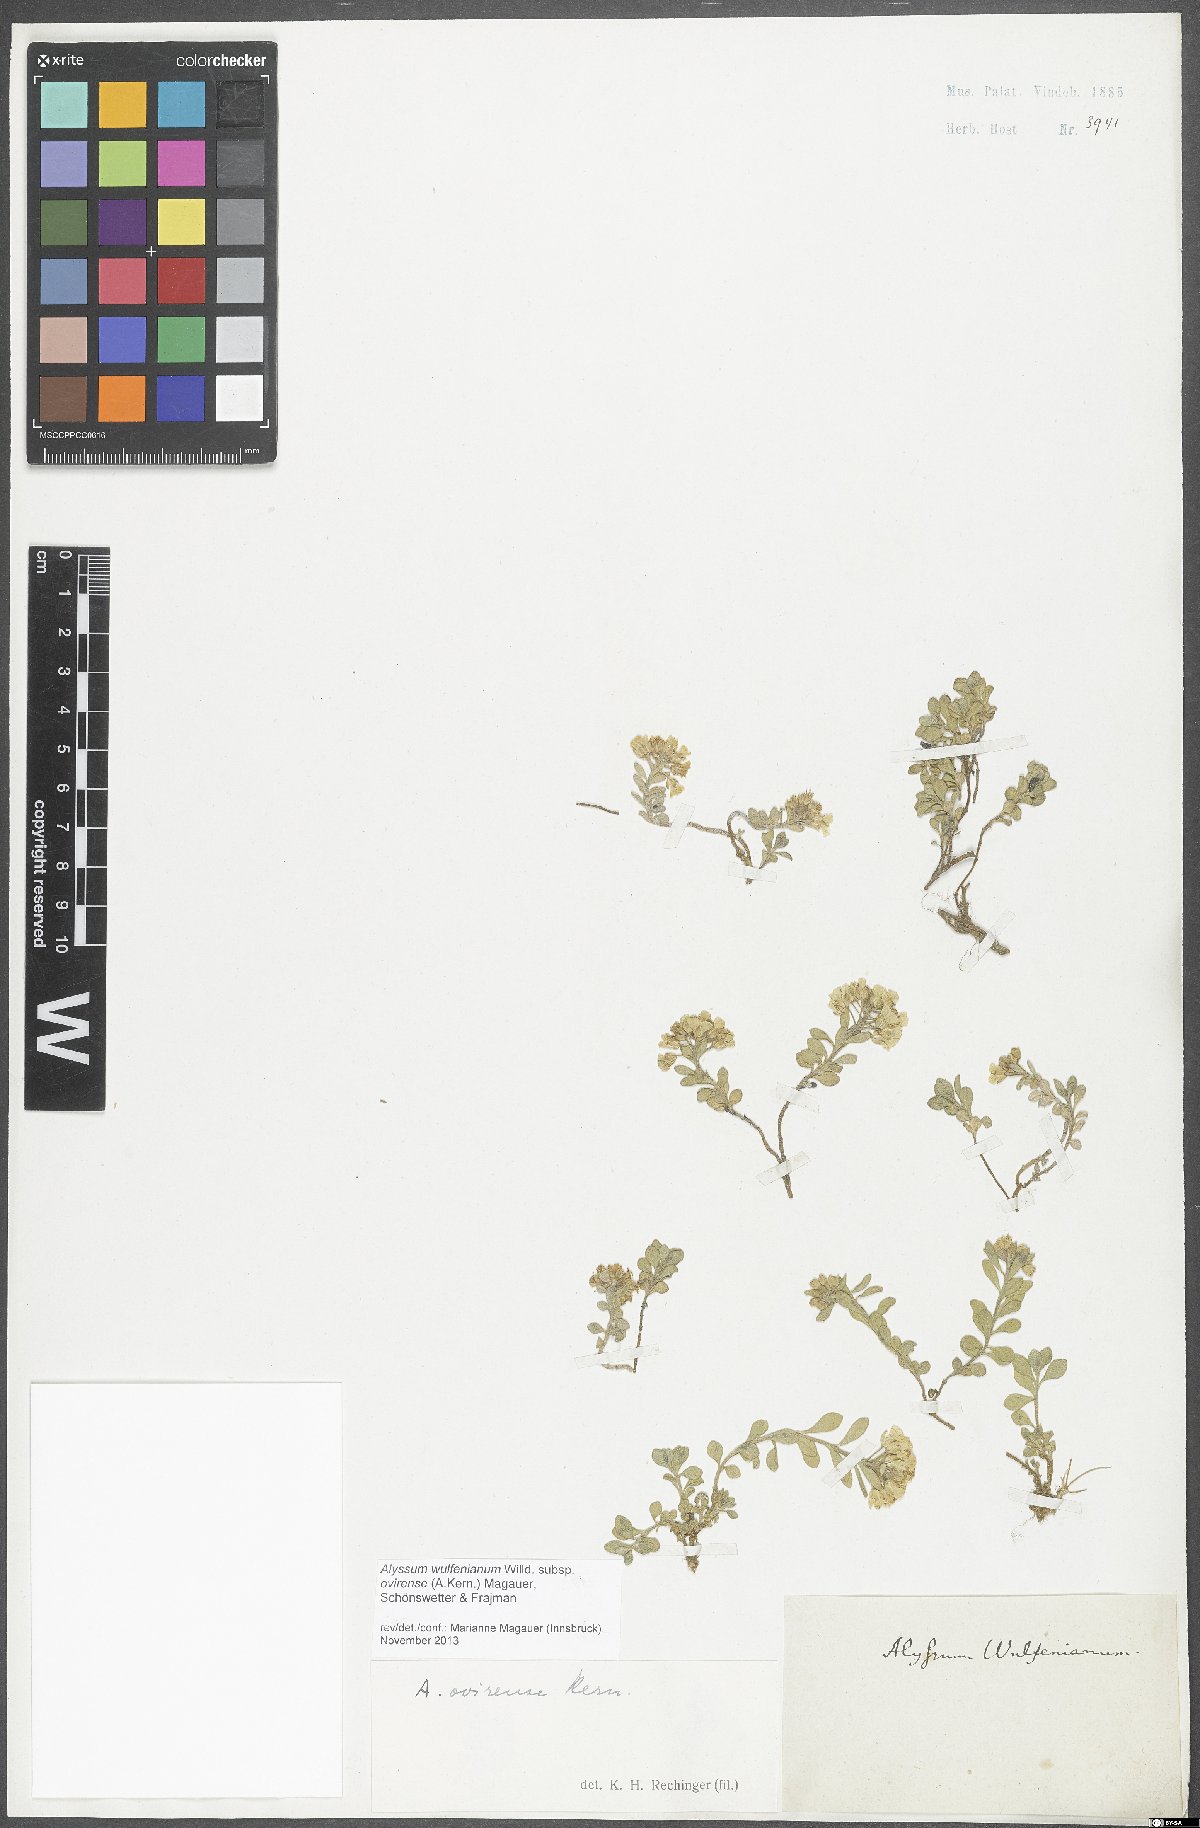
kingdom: Plantae
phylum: Tracheophyta
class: Magnoliopsida
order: Brassicales
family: Brassicaceae
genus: Alyssum
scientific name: Alyssum wulfenianum
